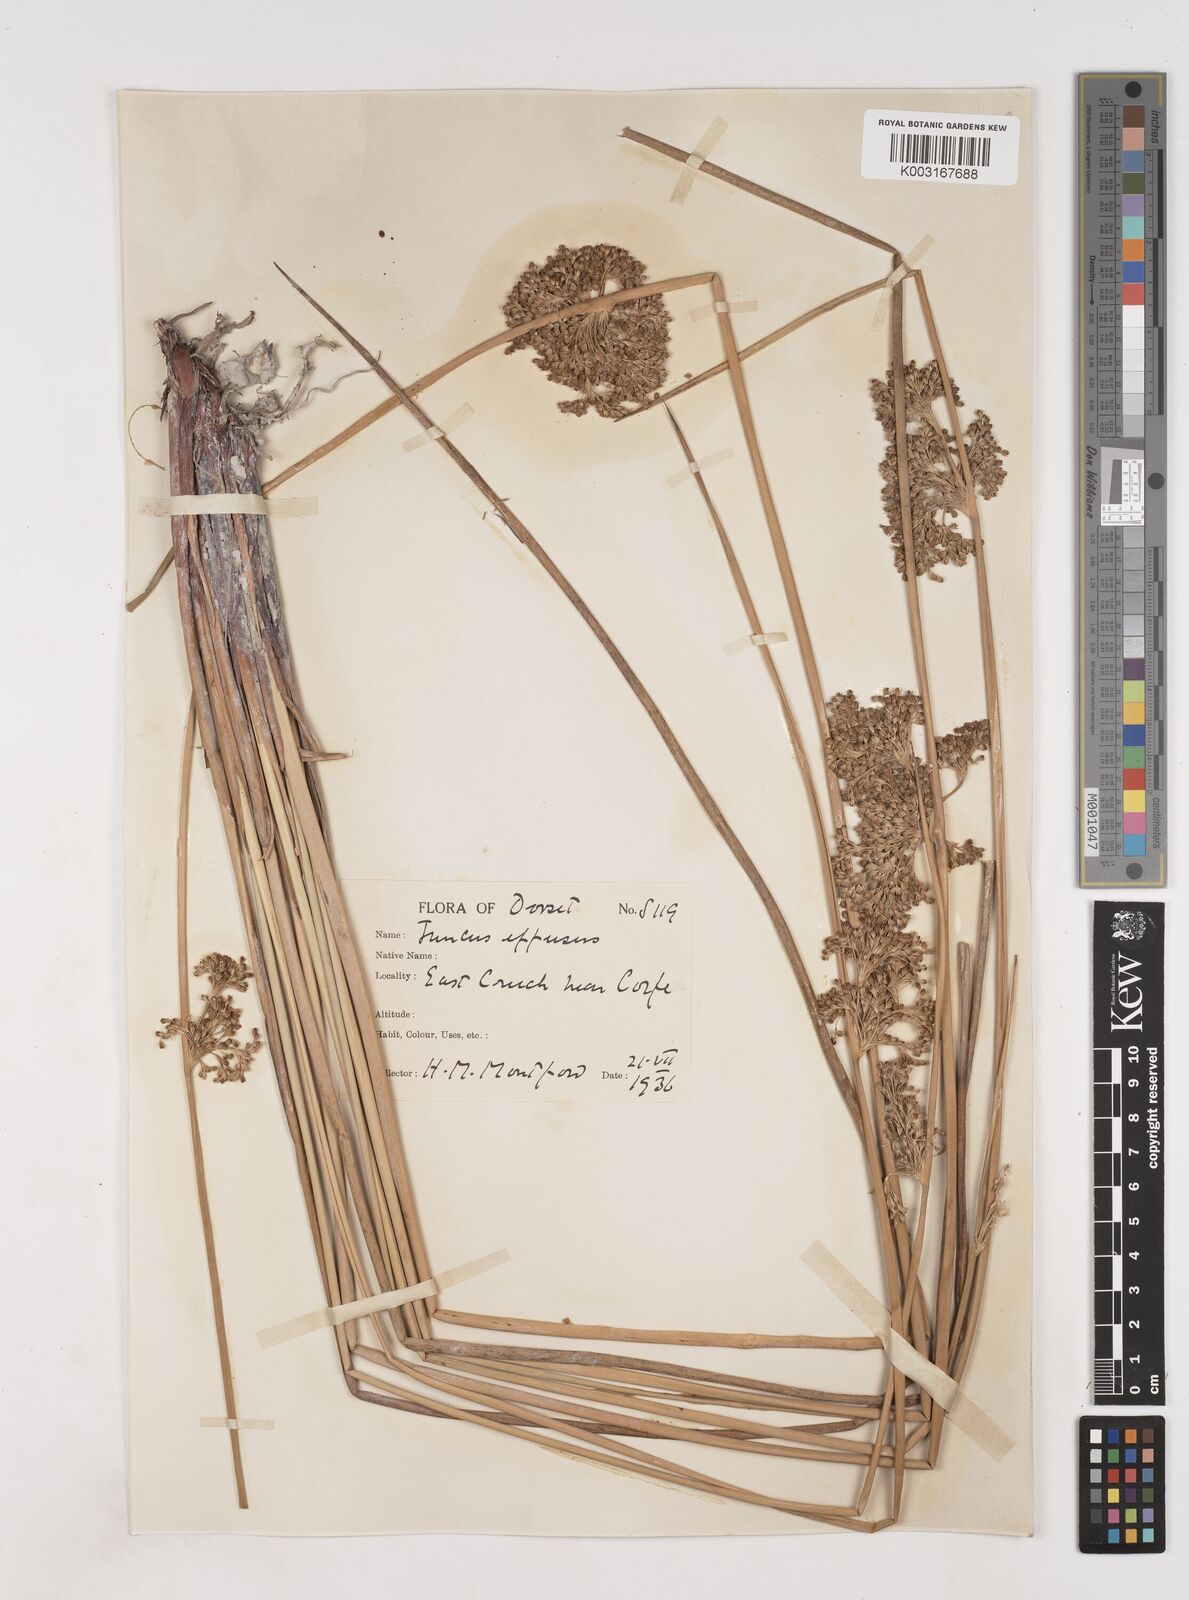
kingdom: Plantae
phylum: Tracheophyta
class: Liliopsida
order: Poales
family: Juncaceae
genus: Juncus
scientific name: Juncus effusus
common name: Soft rush
